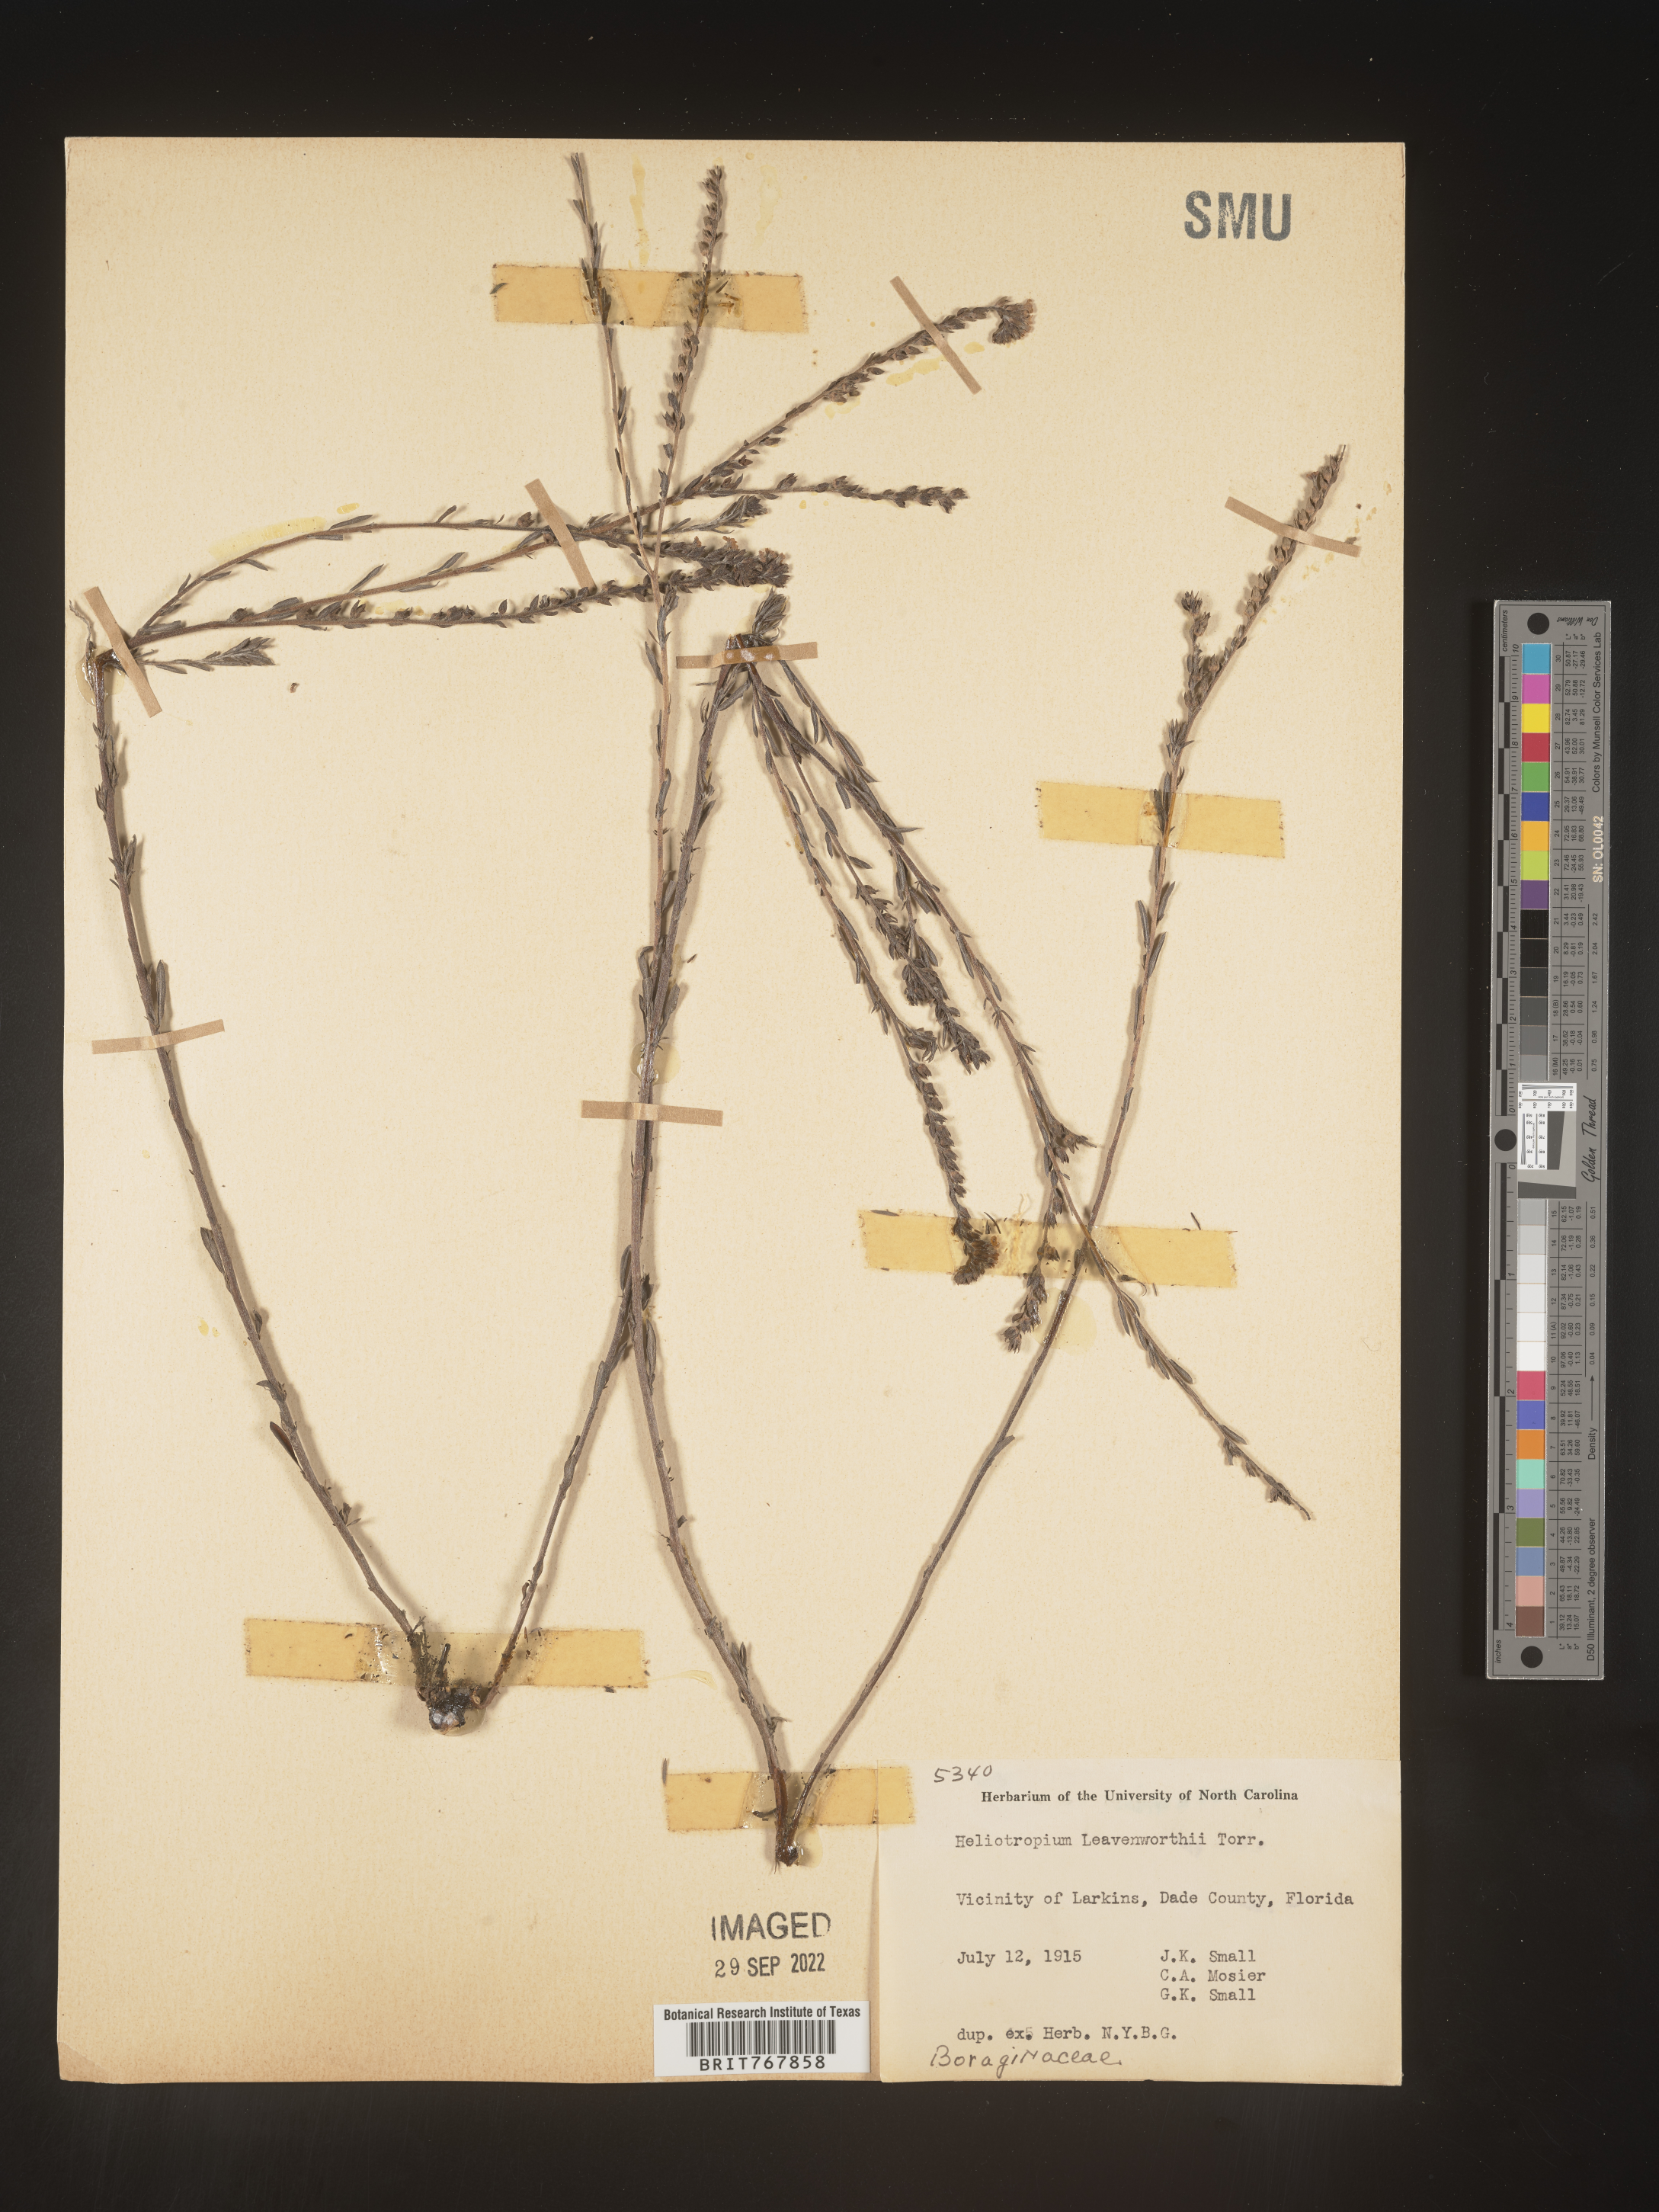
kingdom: Plantae
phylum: Tracheophyta
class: Magnoliopsida
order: Boraginales
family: Heliotropiaceae
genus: Heliotropium
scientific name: Heliotropium leavenworthii
